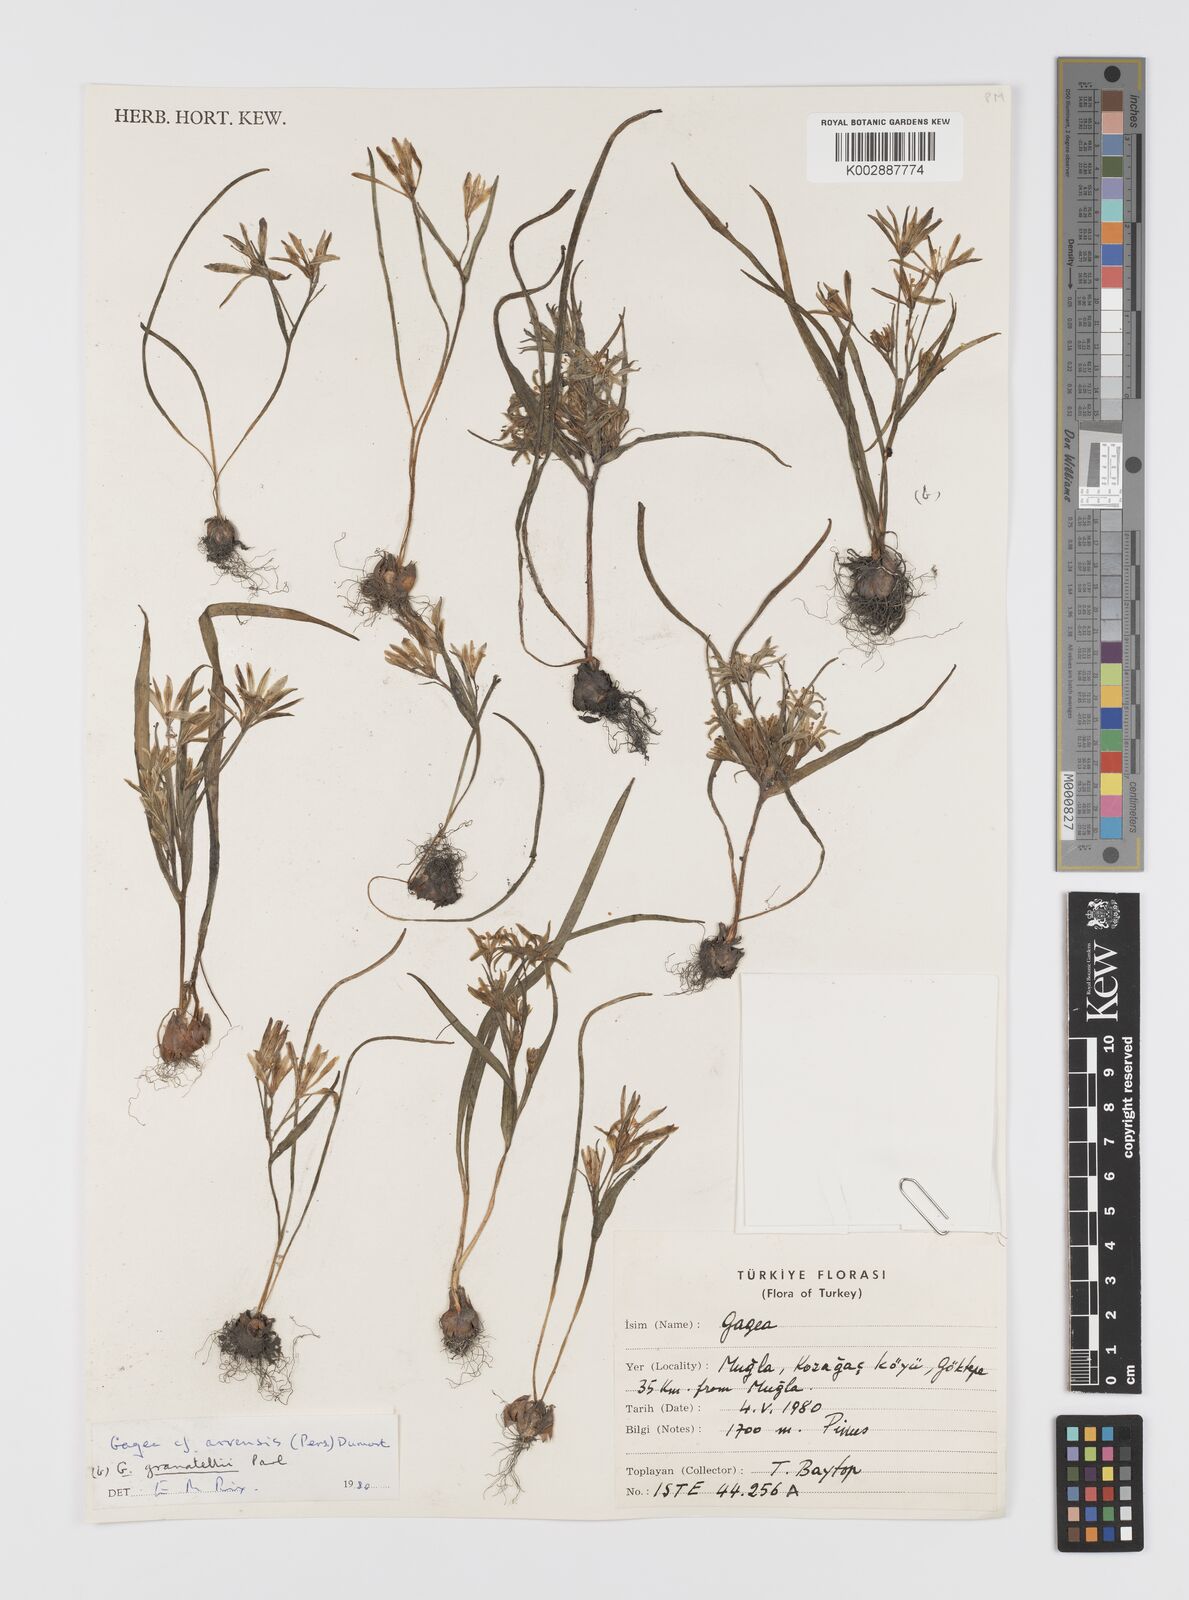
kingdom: Plantae
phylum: Tracheophyta
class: Liliopsida
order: Liliales
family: Liliaceae
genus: Gagea
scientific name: Gagea villosa
